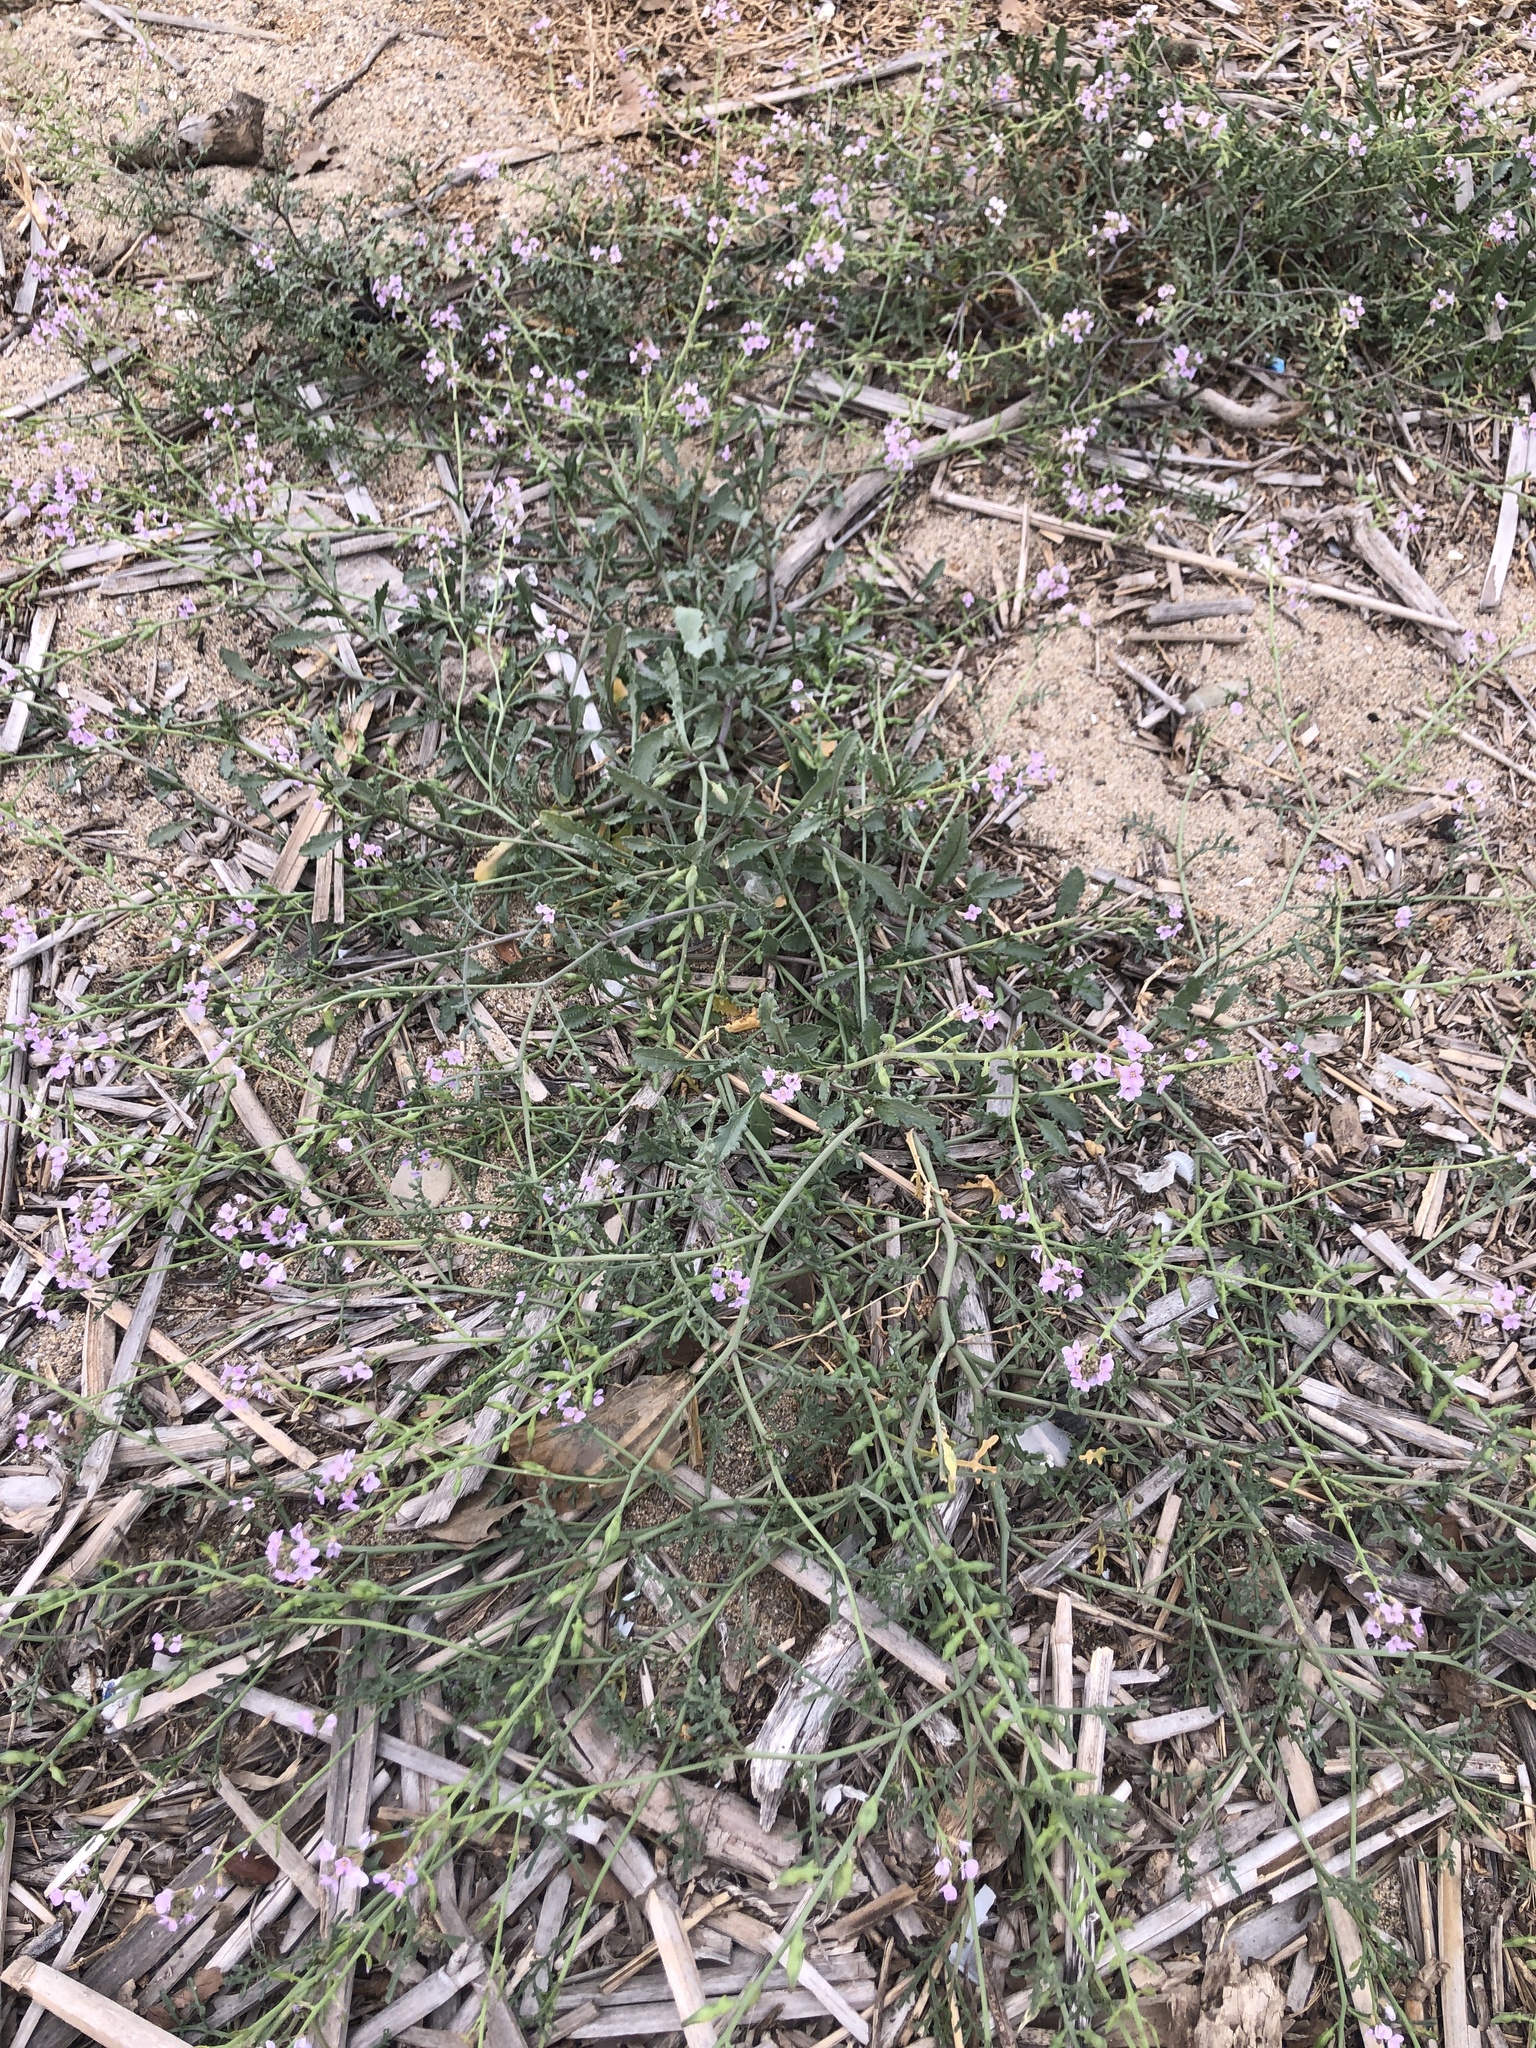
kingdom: Plantae
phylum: Tracheophyta
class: Magnoliopsida
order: Brassicales
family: Brassicaceae
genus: Cakile
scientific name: Cakile maritima
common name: Sea rocket
